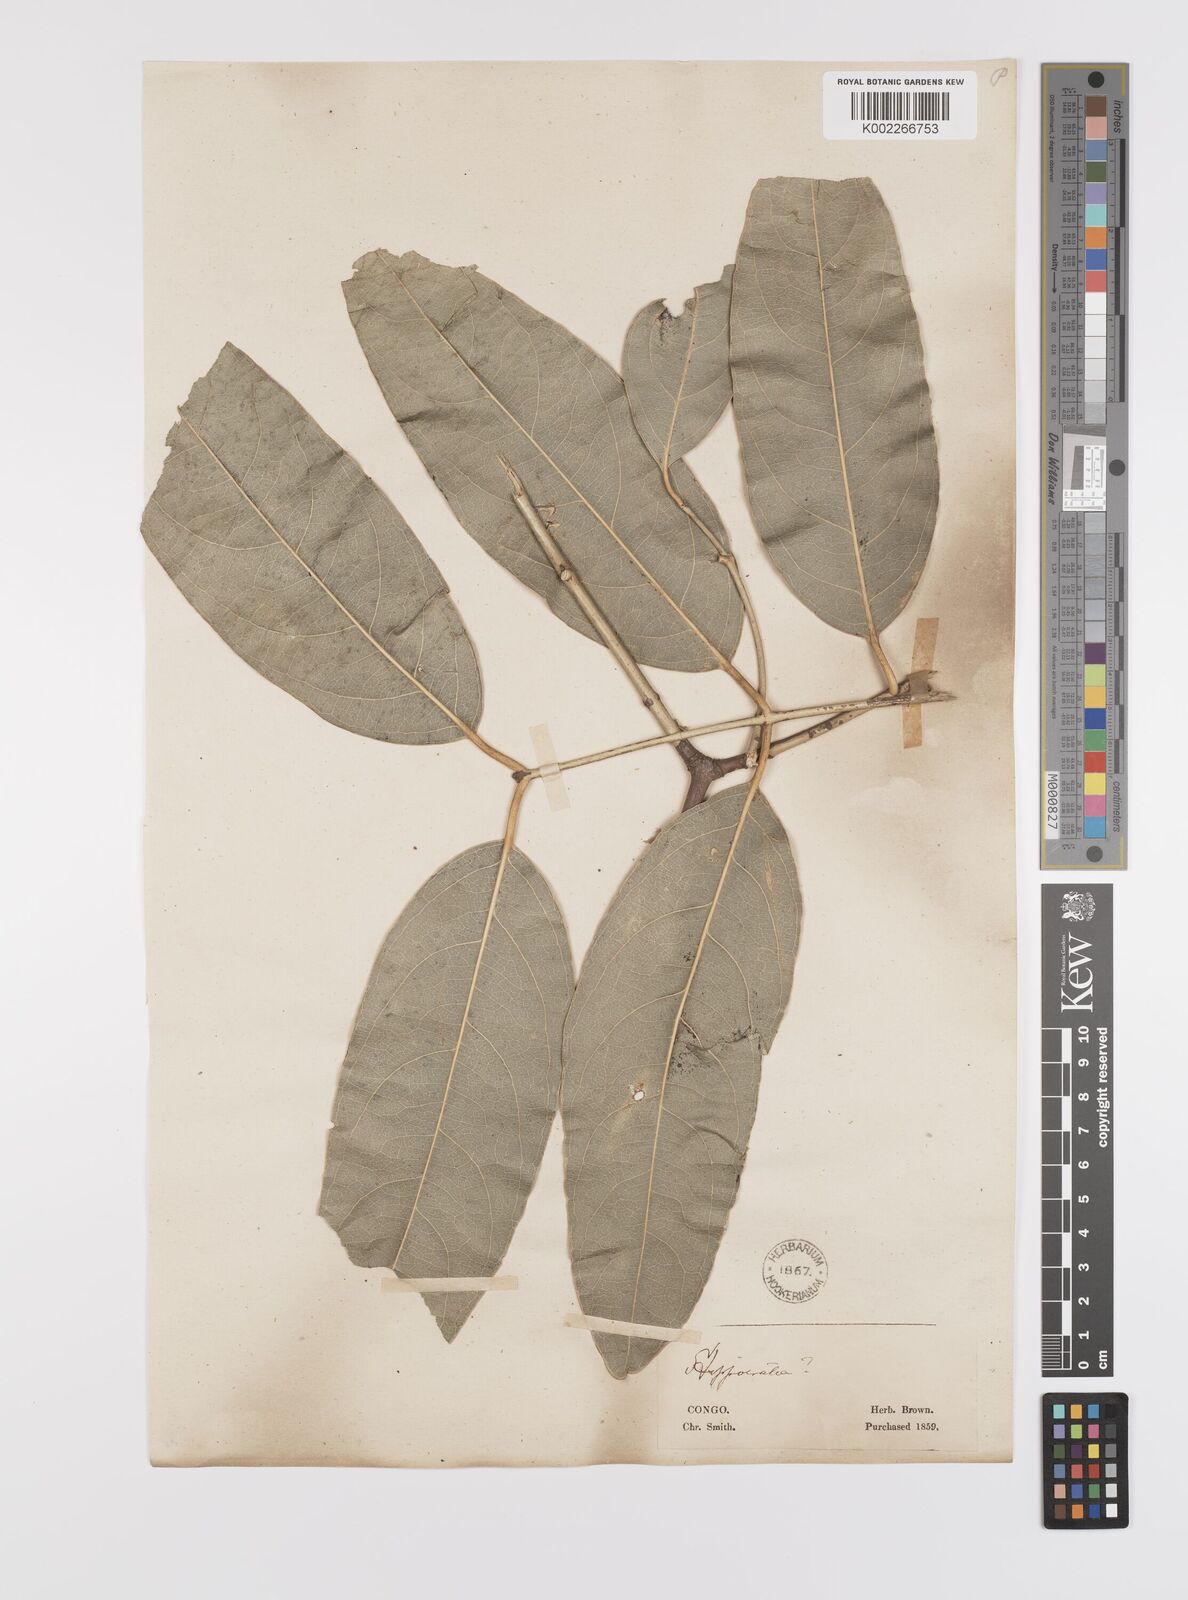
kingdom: Plantae
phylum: Tracheophyta
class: Magnoliopsida
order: Celastrales
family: Celastraceae
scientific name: Celastraceae
